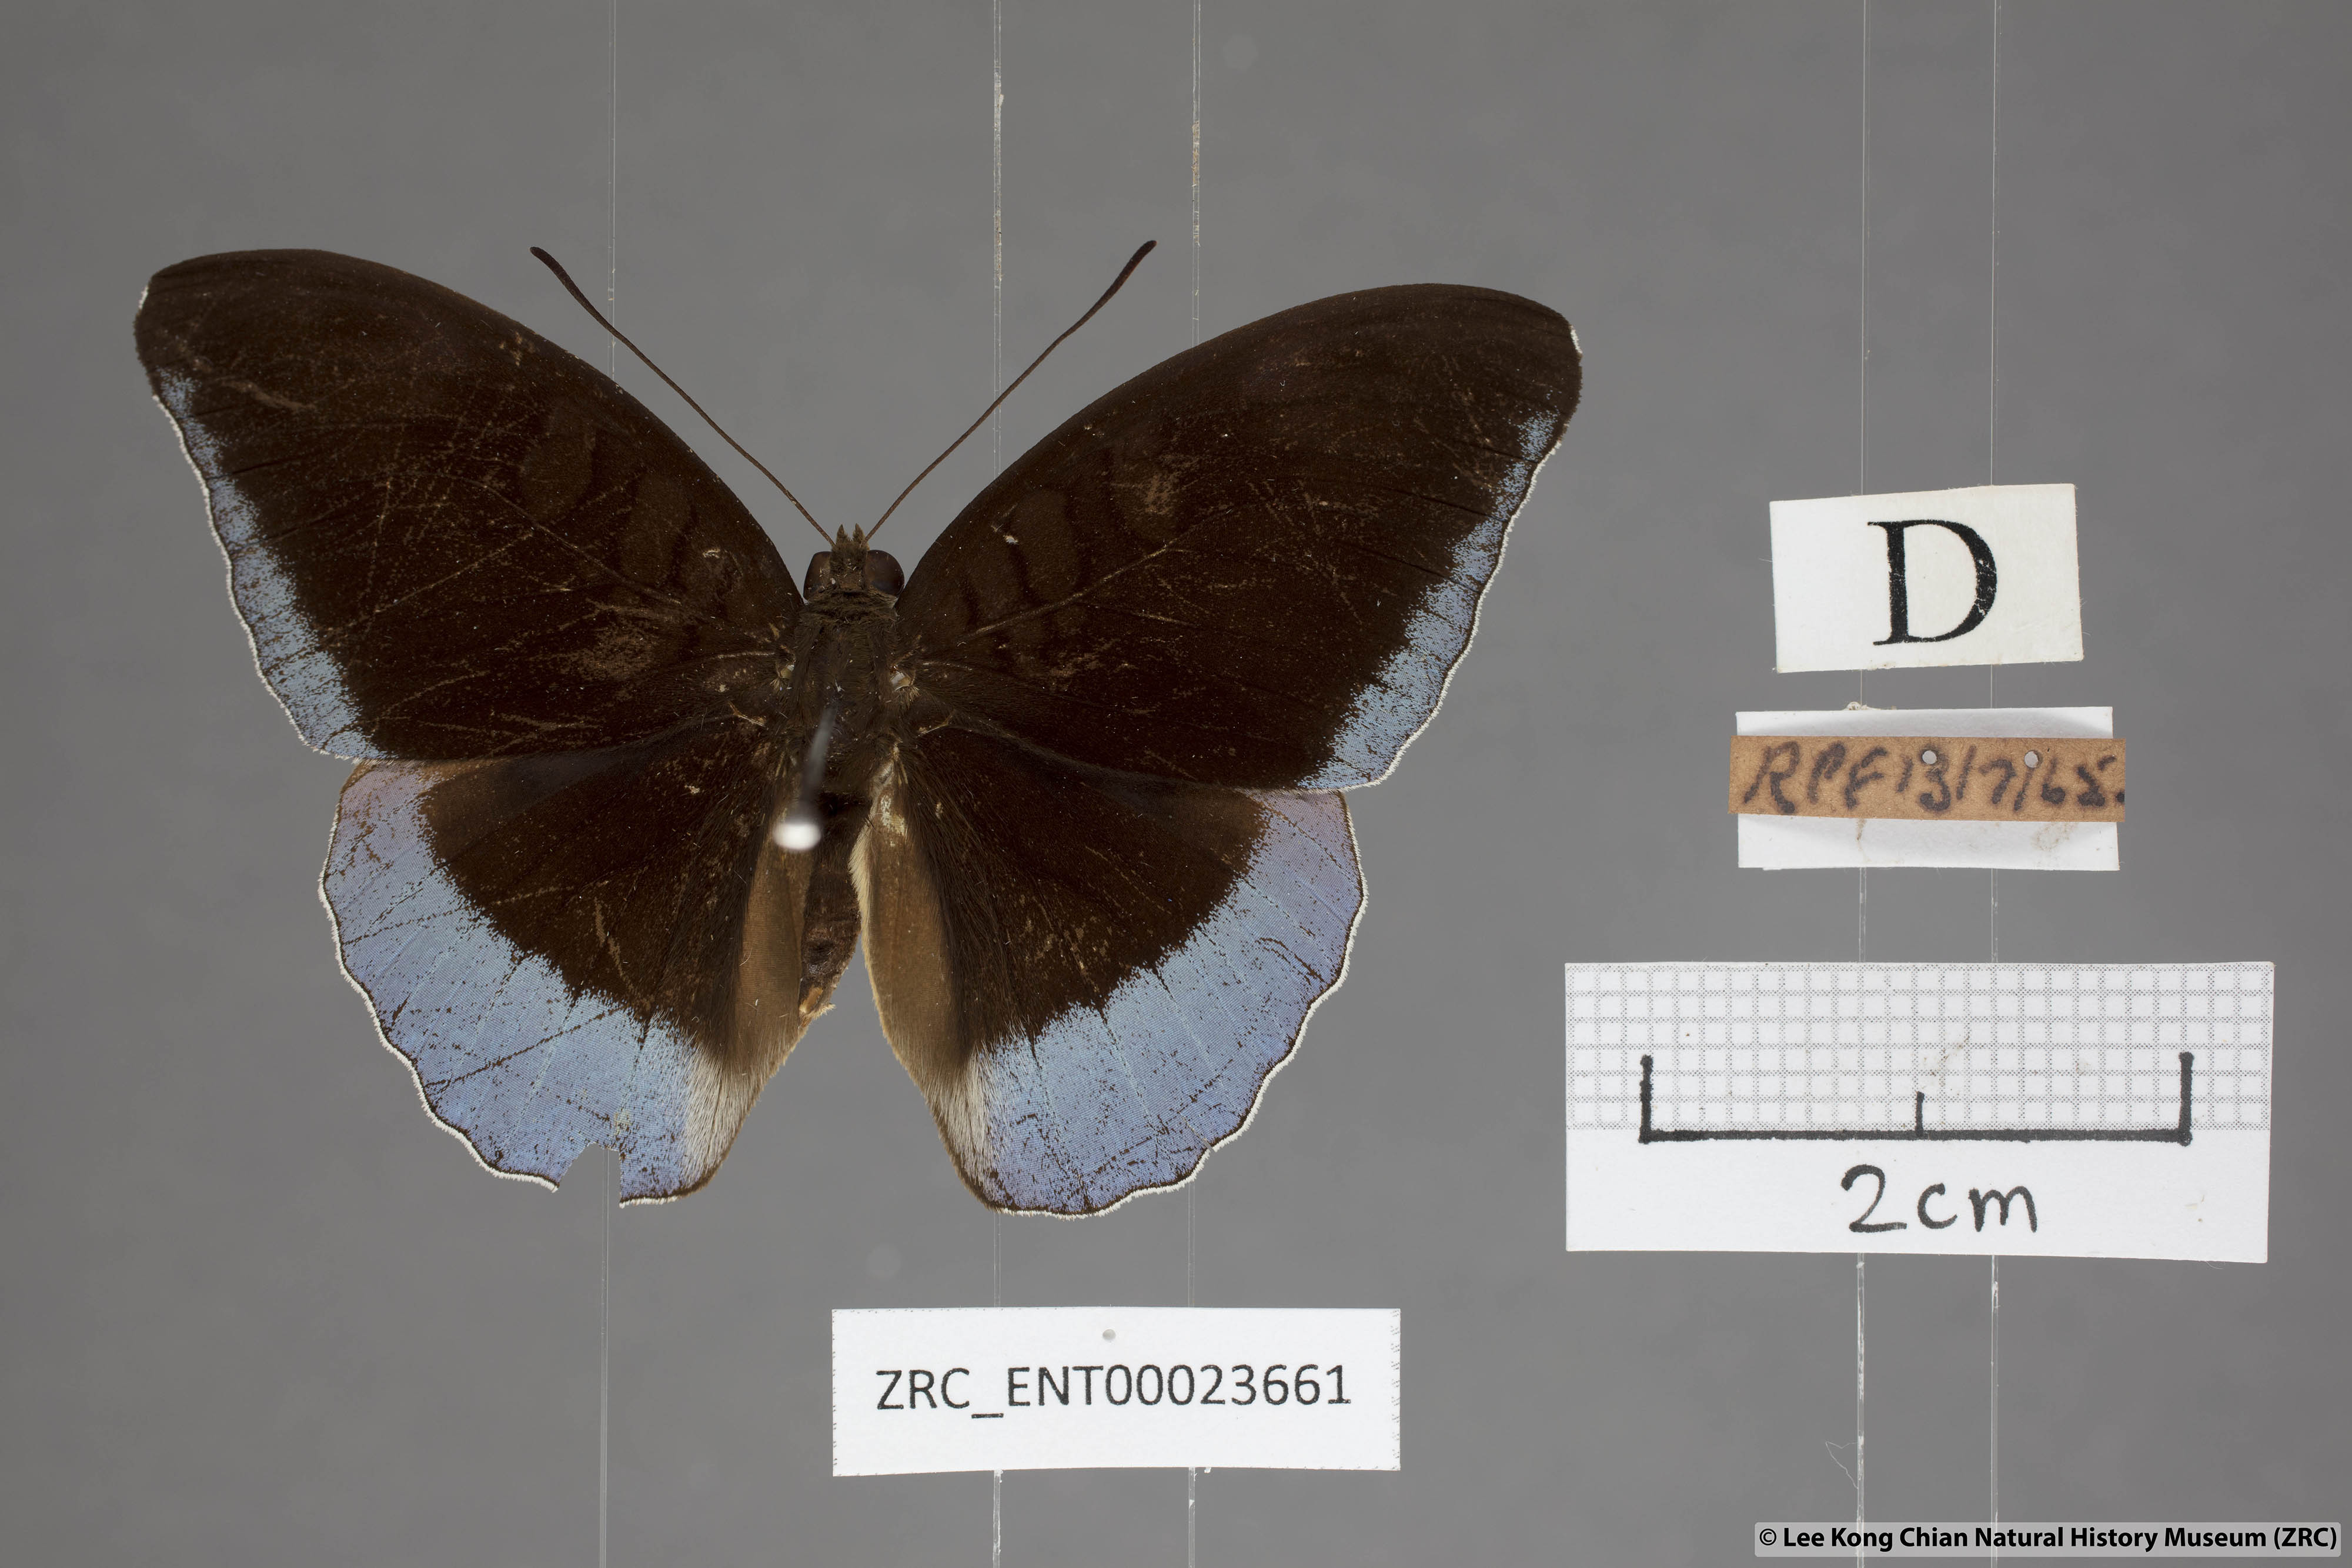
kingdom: Animalia
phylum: Arthropoda
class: Insecta
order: Lepidoptera
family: Nymphalidae
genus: Tanaecia
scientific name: Tanaecia godartii
